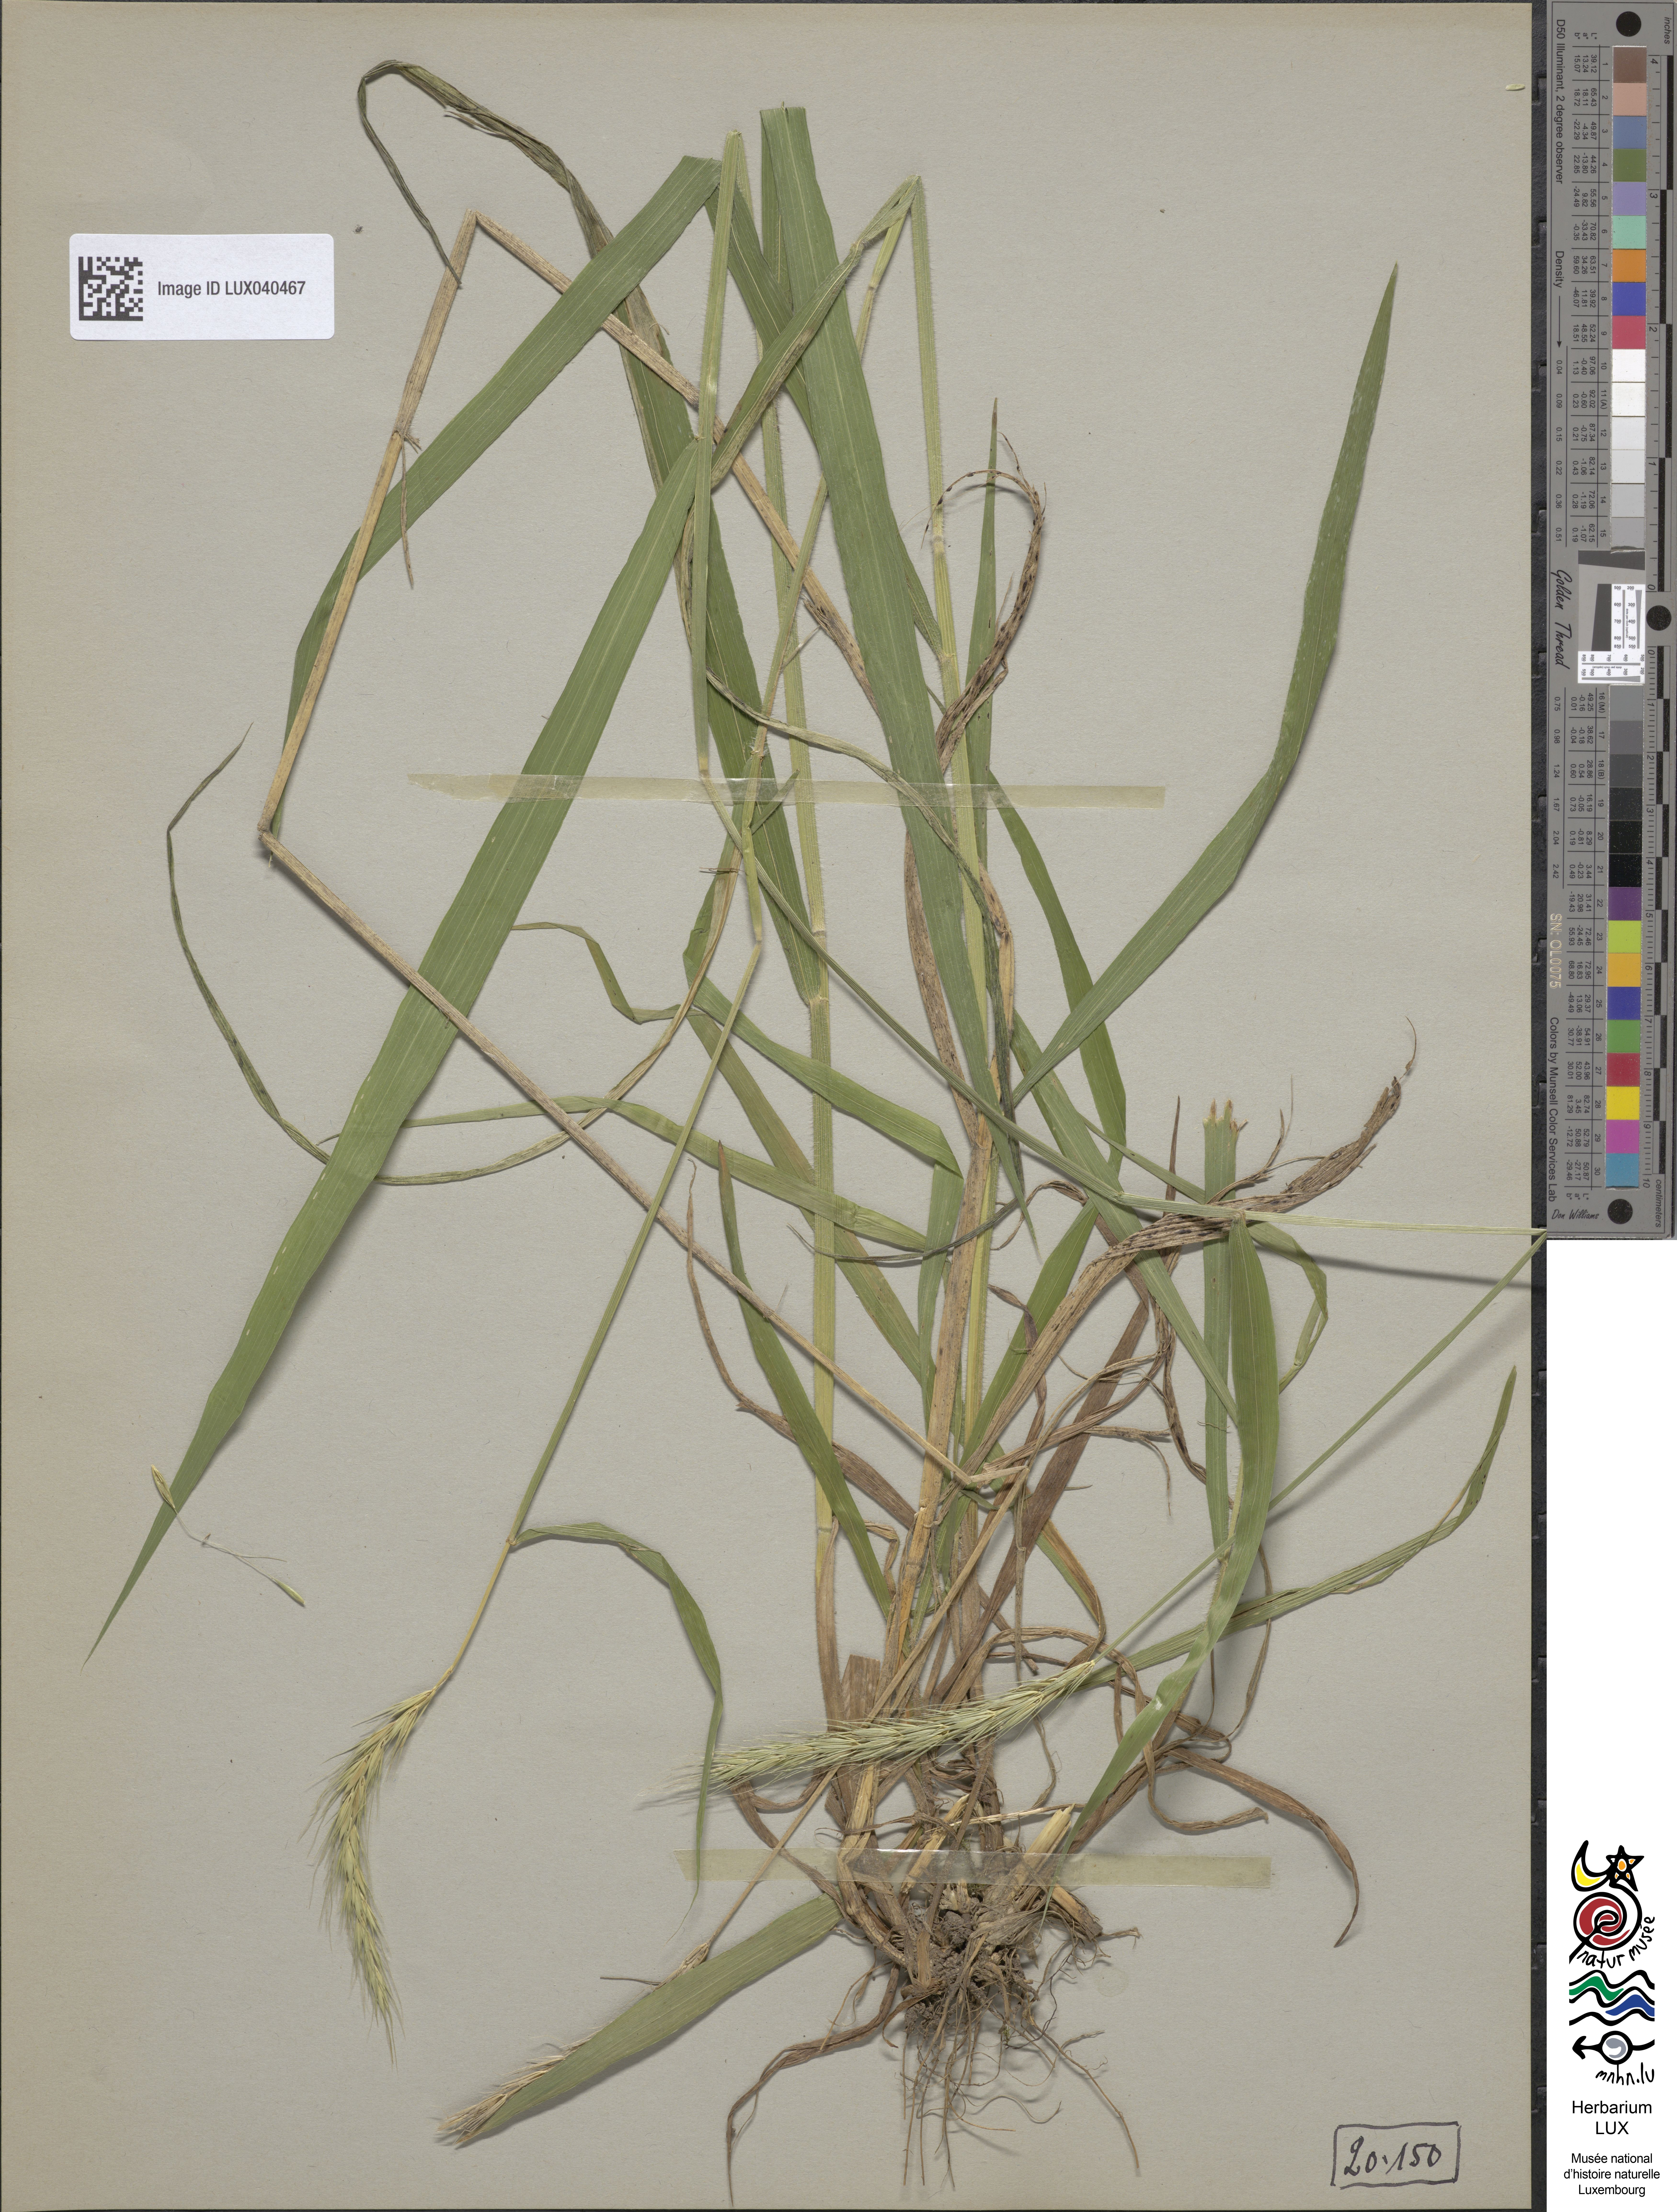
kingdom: Plantae
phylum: Tracheophyta
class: Liliopsida
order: Poales
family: Poaceae
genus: Hordelymus
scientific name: Hordelymus europaeus
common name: Wood-barley
